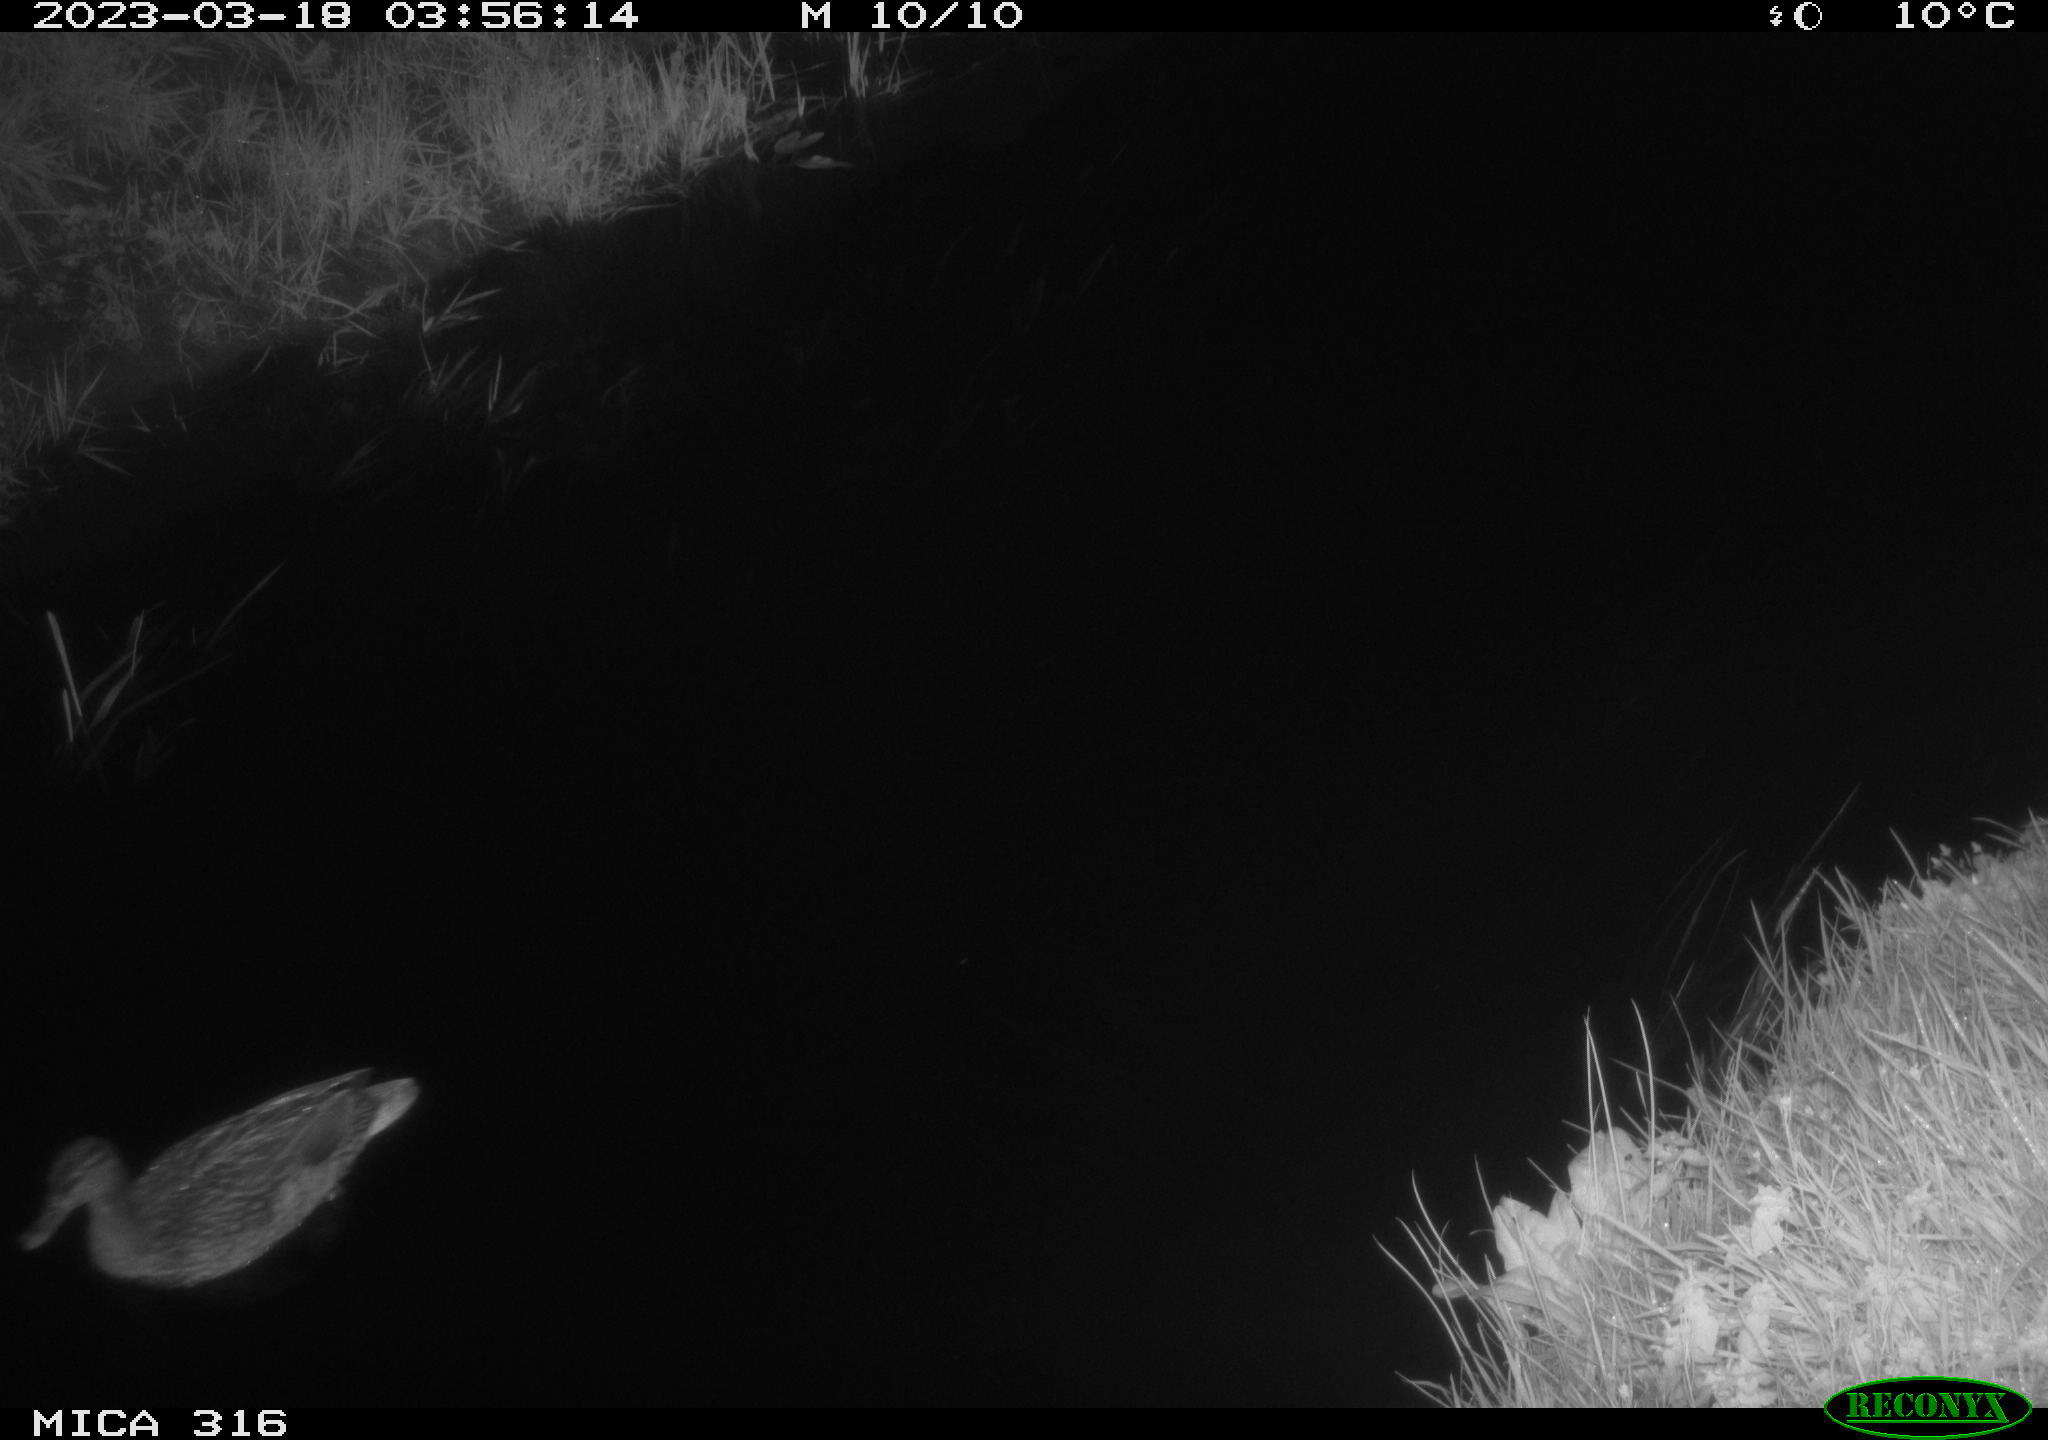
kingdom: Animalia
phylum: Chordata
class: Aves
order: Anseriformes
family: Anatidae
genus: Anas
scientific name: Anas
